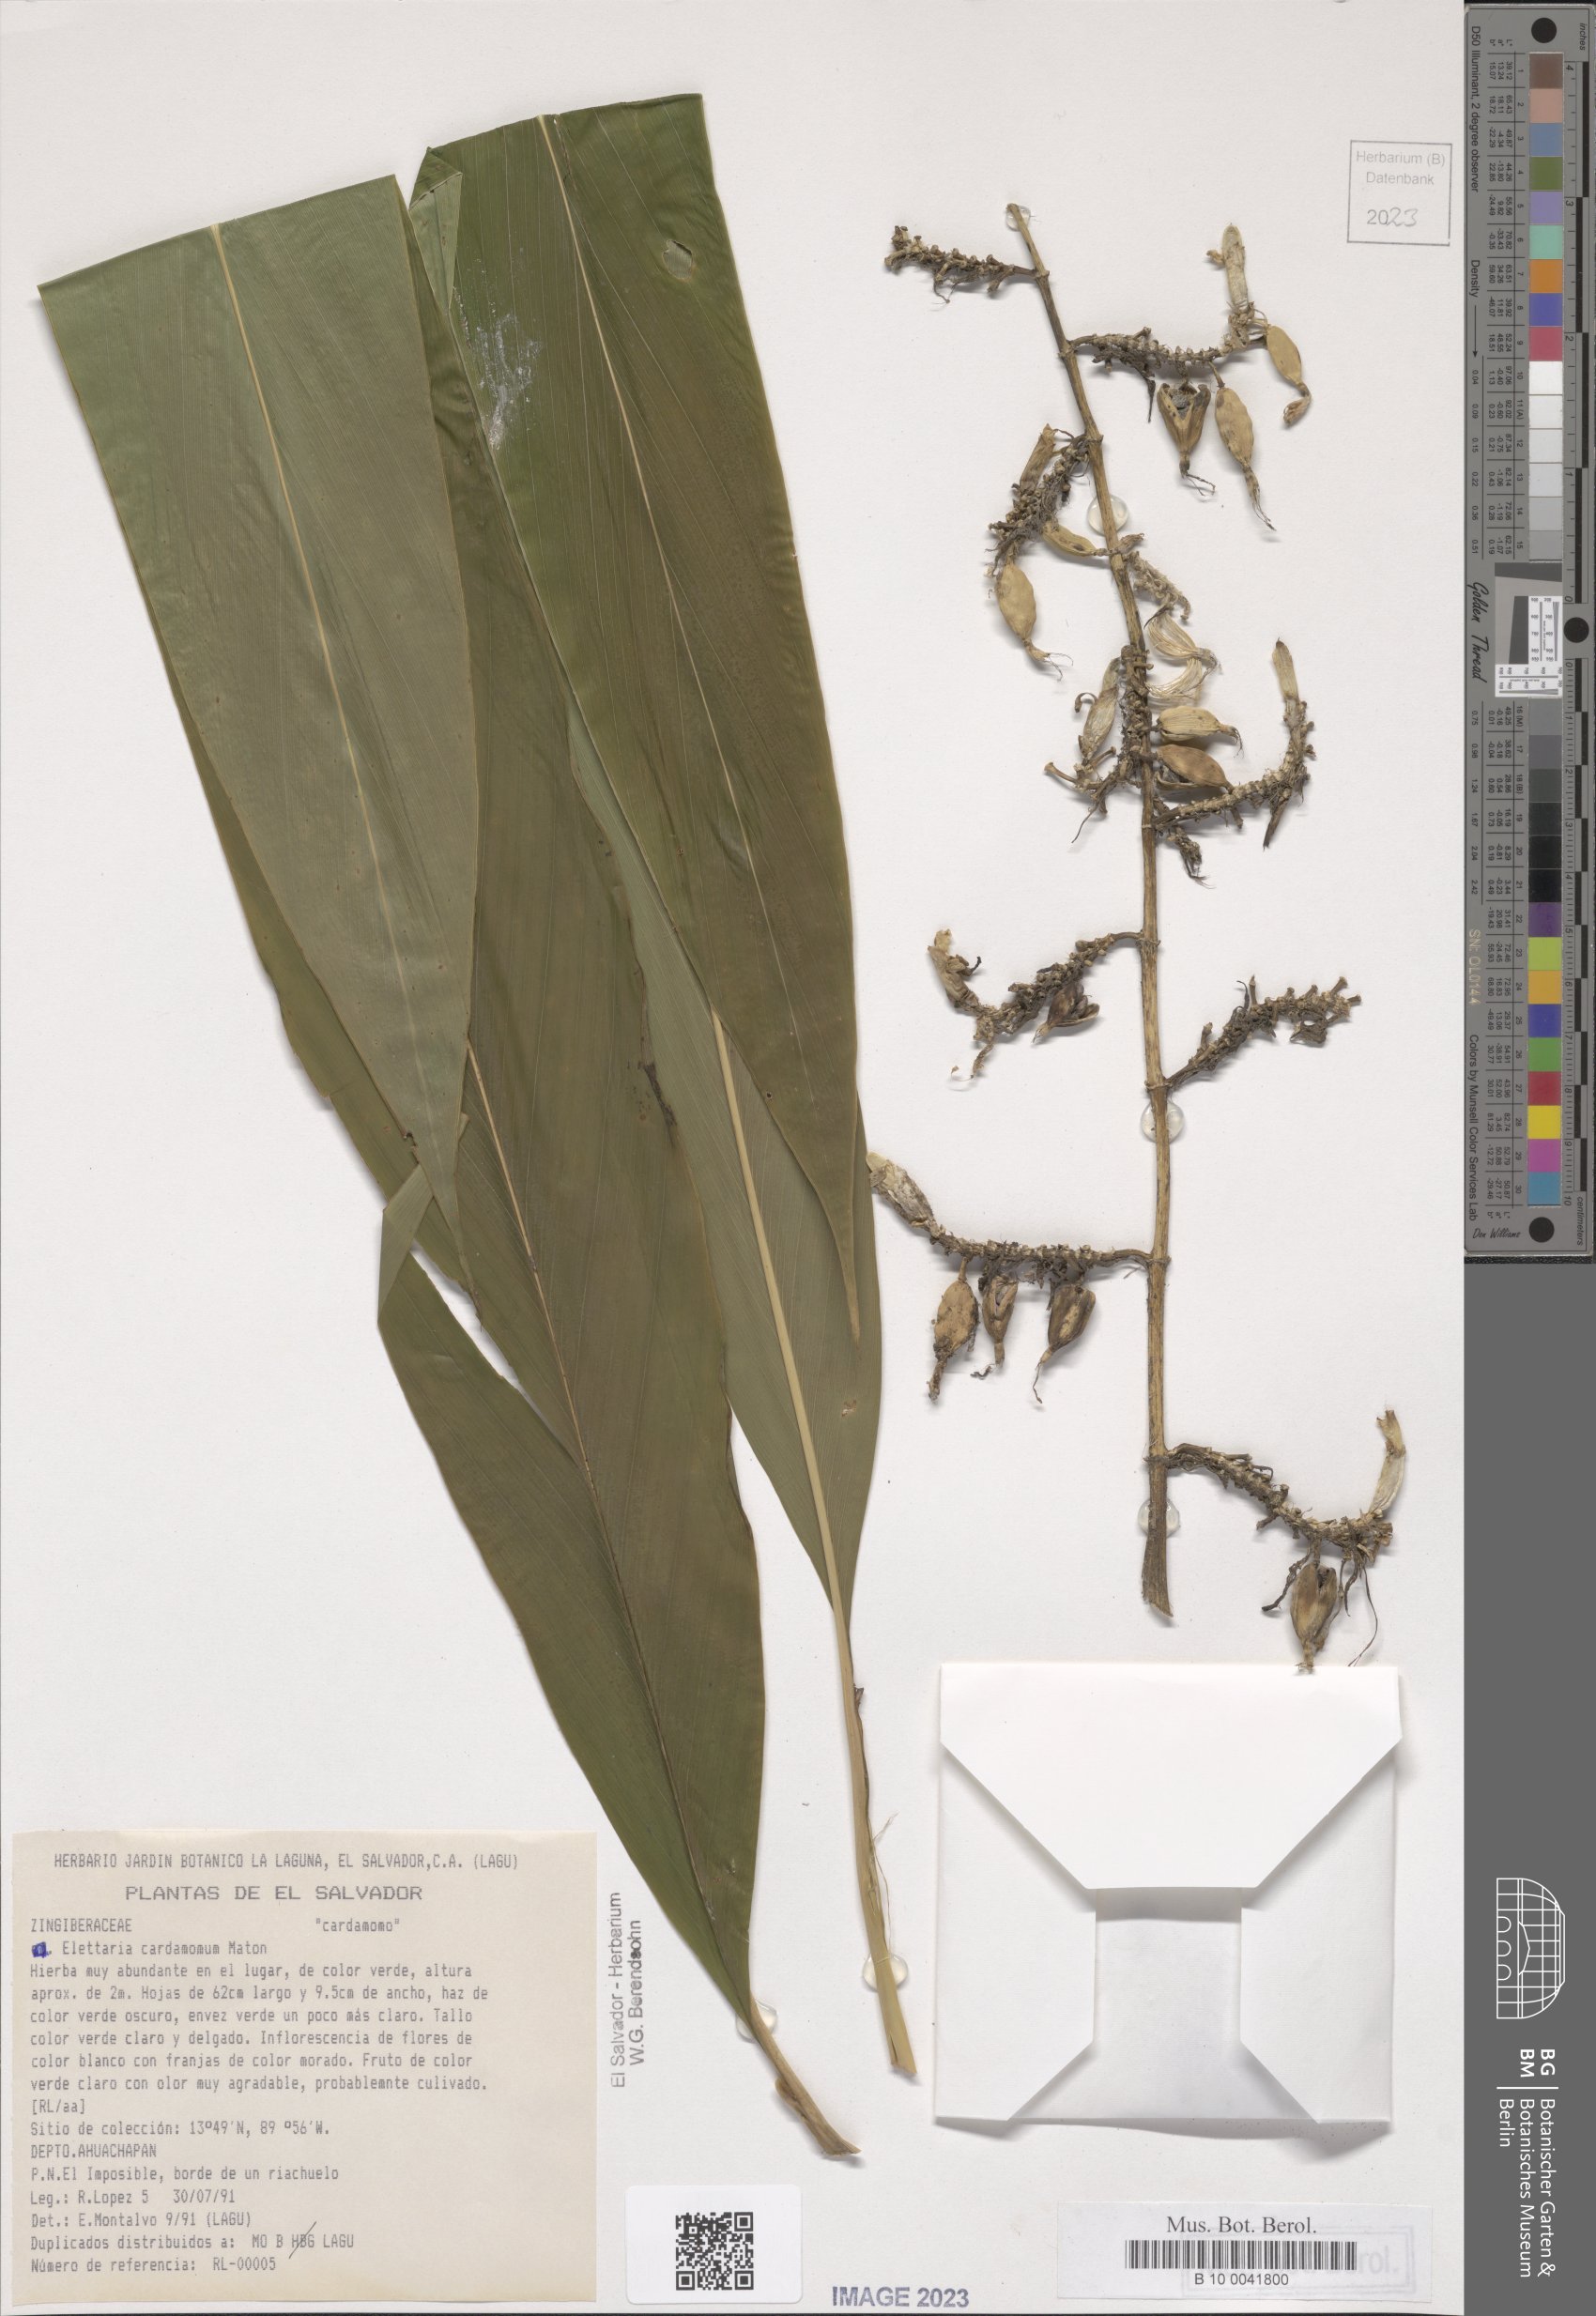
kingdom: Plantae
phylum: Tracheophyta
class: Liliopsida
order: Zingiberales
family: Zingiberaceae
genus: Elettaria
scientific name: Elettaria cardamomum
